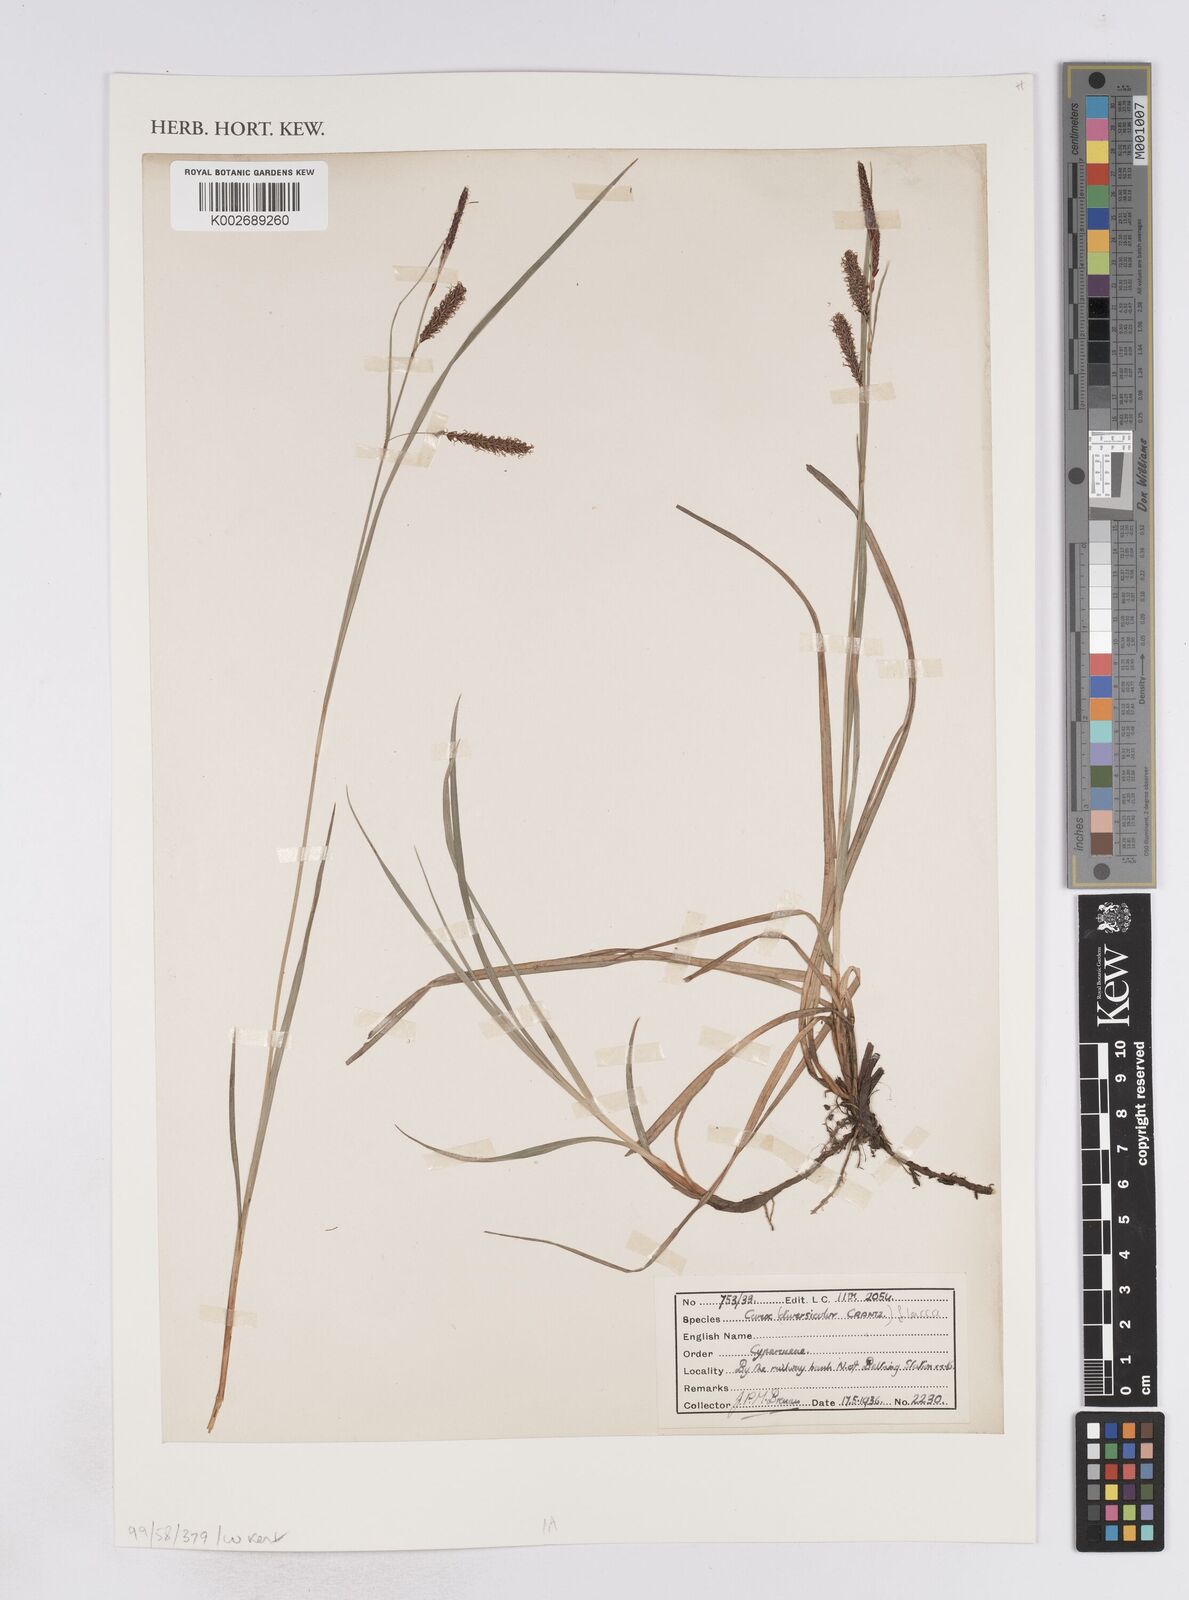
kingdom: Plantae
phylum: Tracheophyta
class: Liliopsida
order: Poales
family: Cyperaceae
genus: Carex
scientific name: Carex flacca
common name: Glaucous sedge
